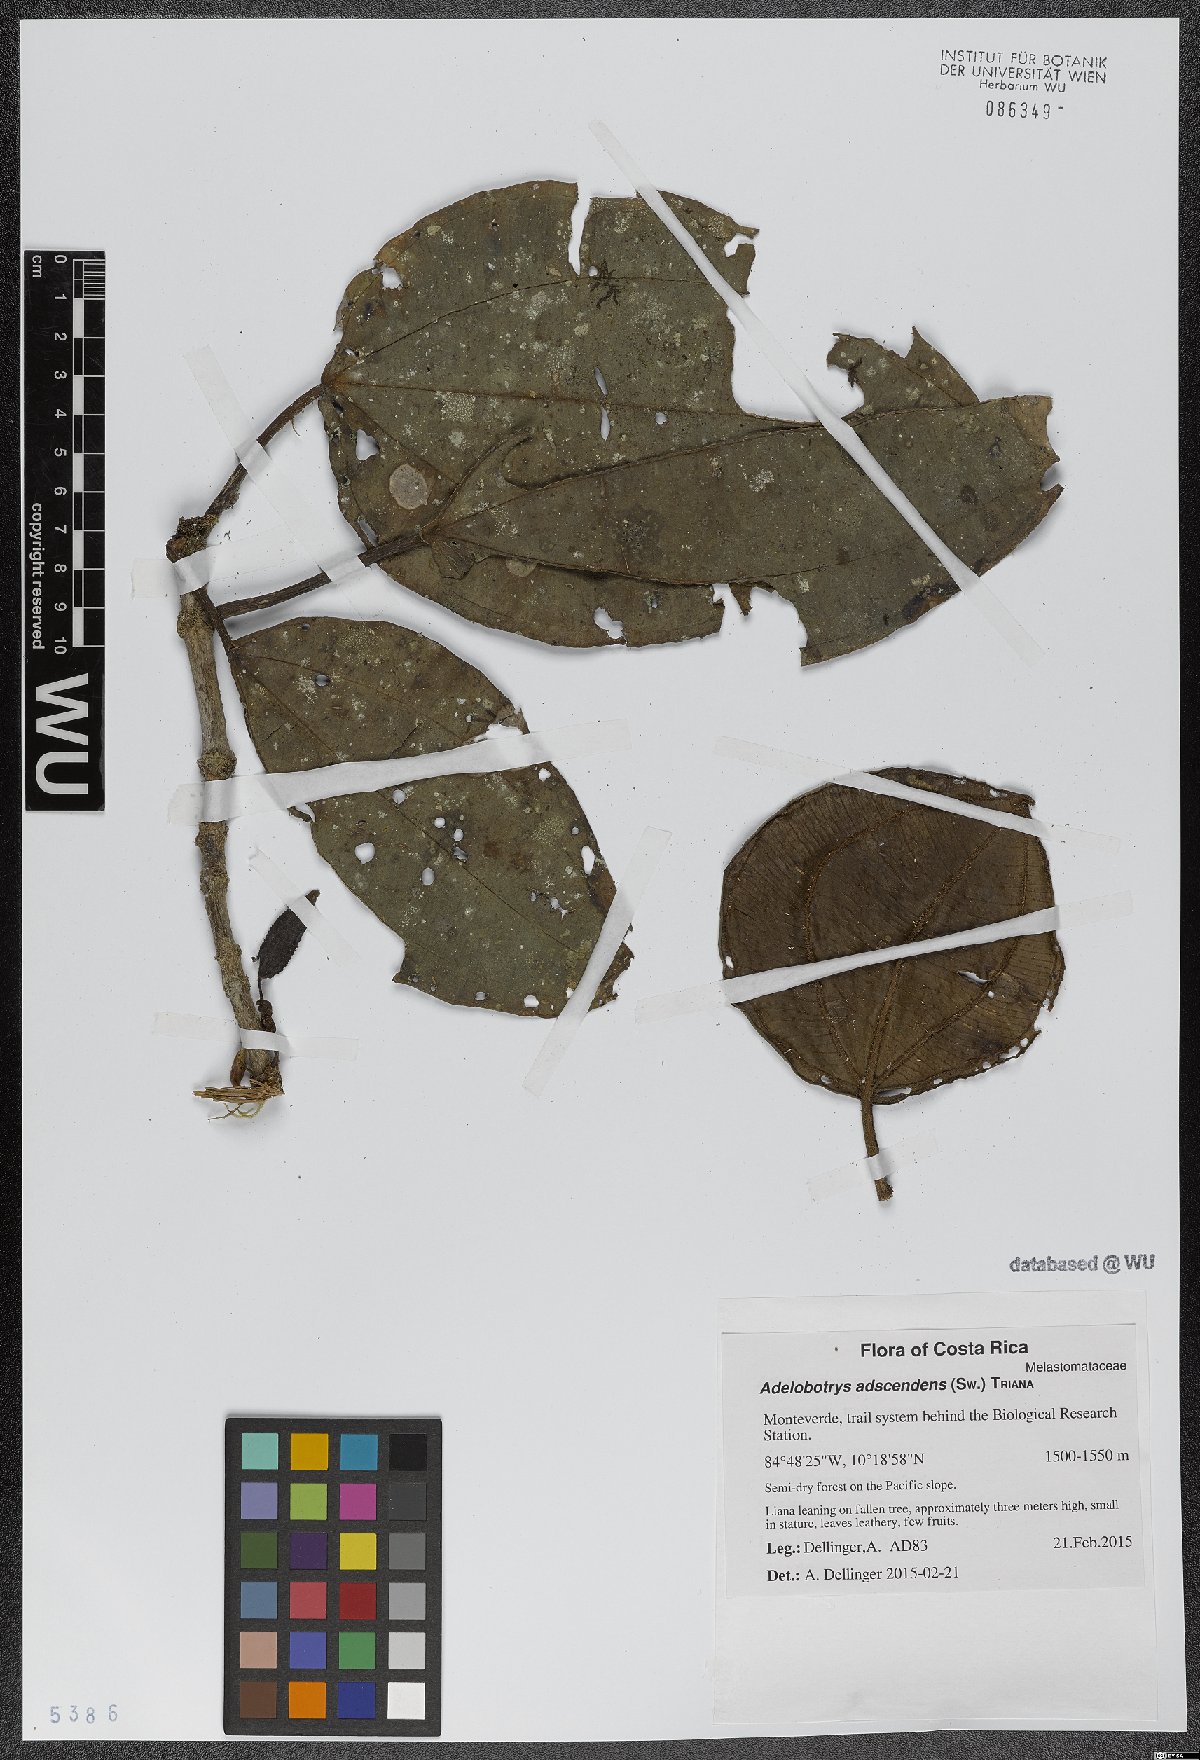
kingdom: Plantae
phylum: Tracheophyta
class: Magnoliopsida
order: Myrtales
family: Melastomataceae
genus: Adelobotrys
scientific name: Adelobotrys adscendens
